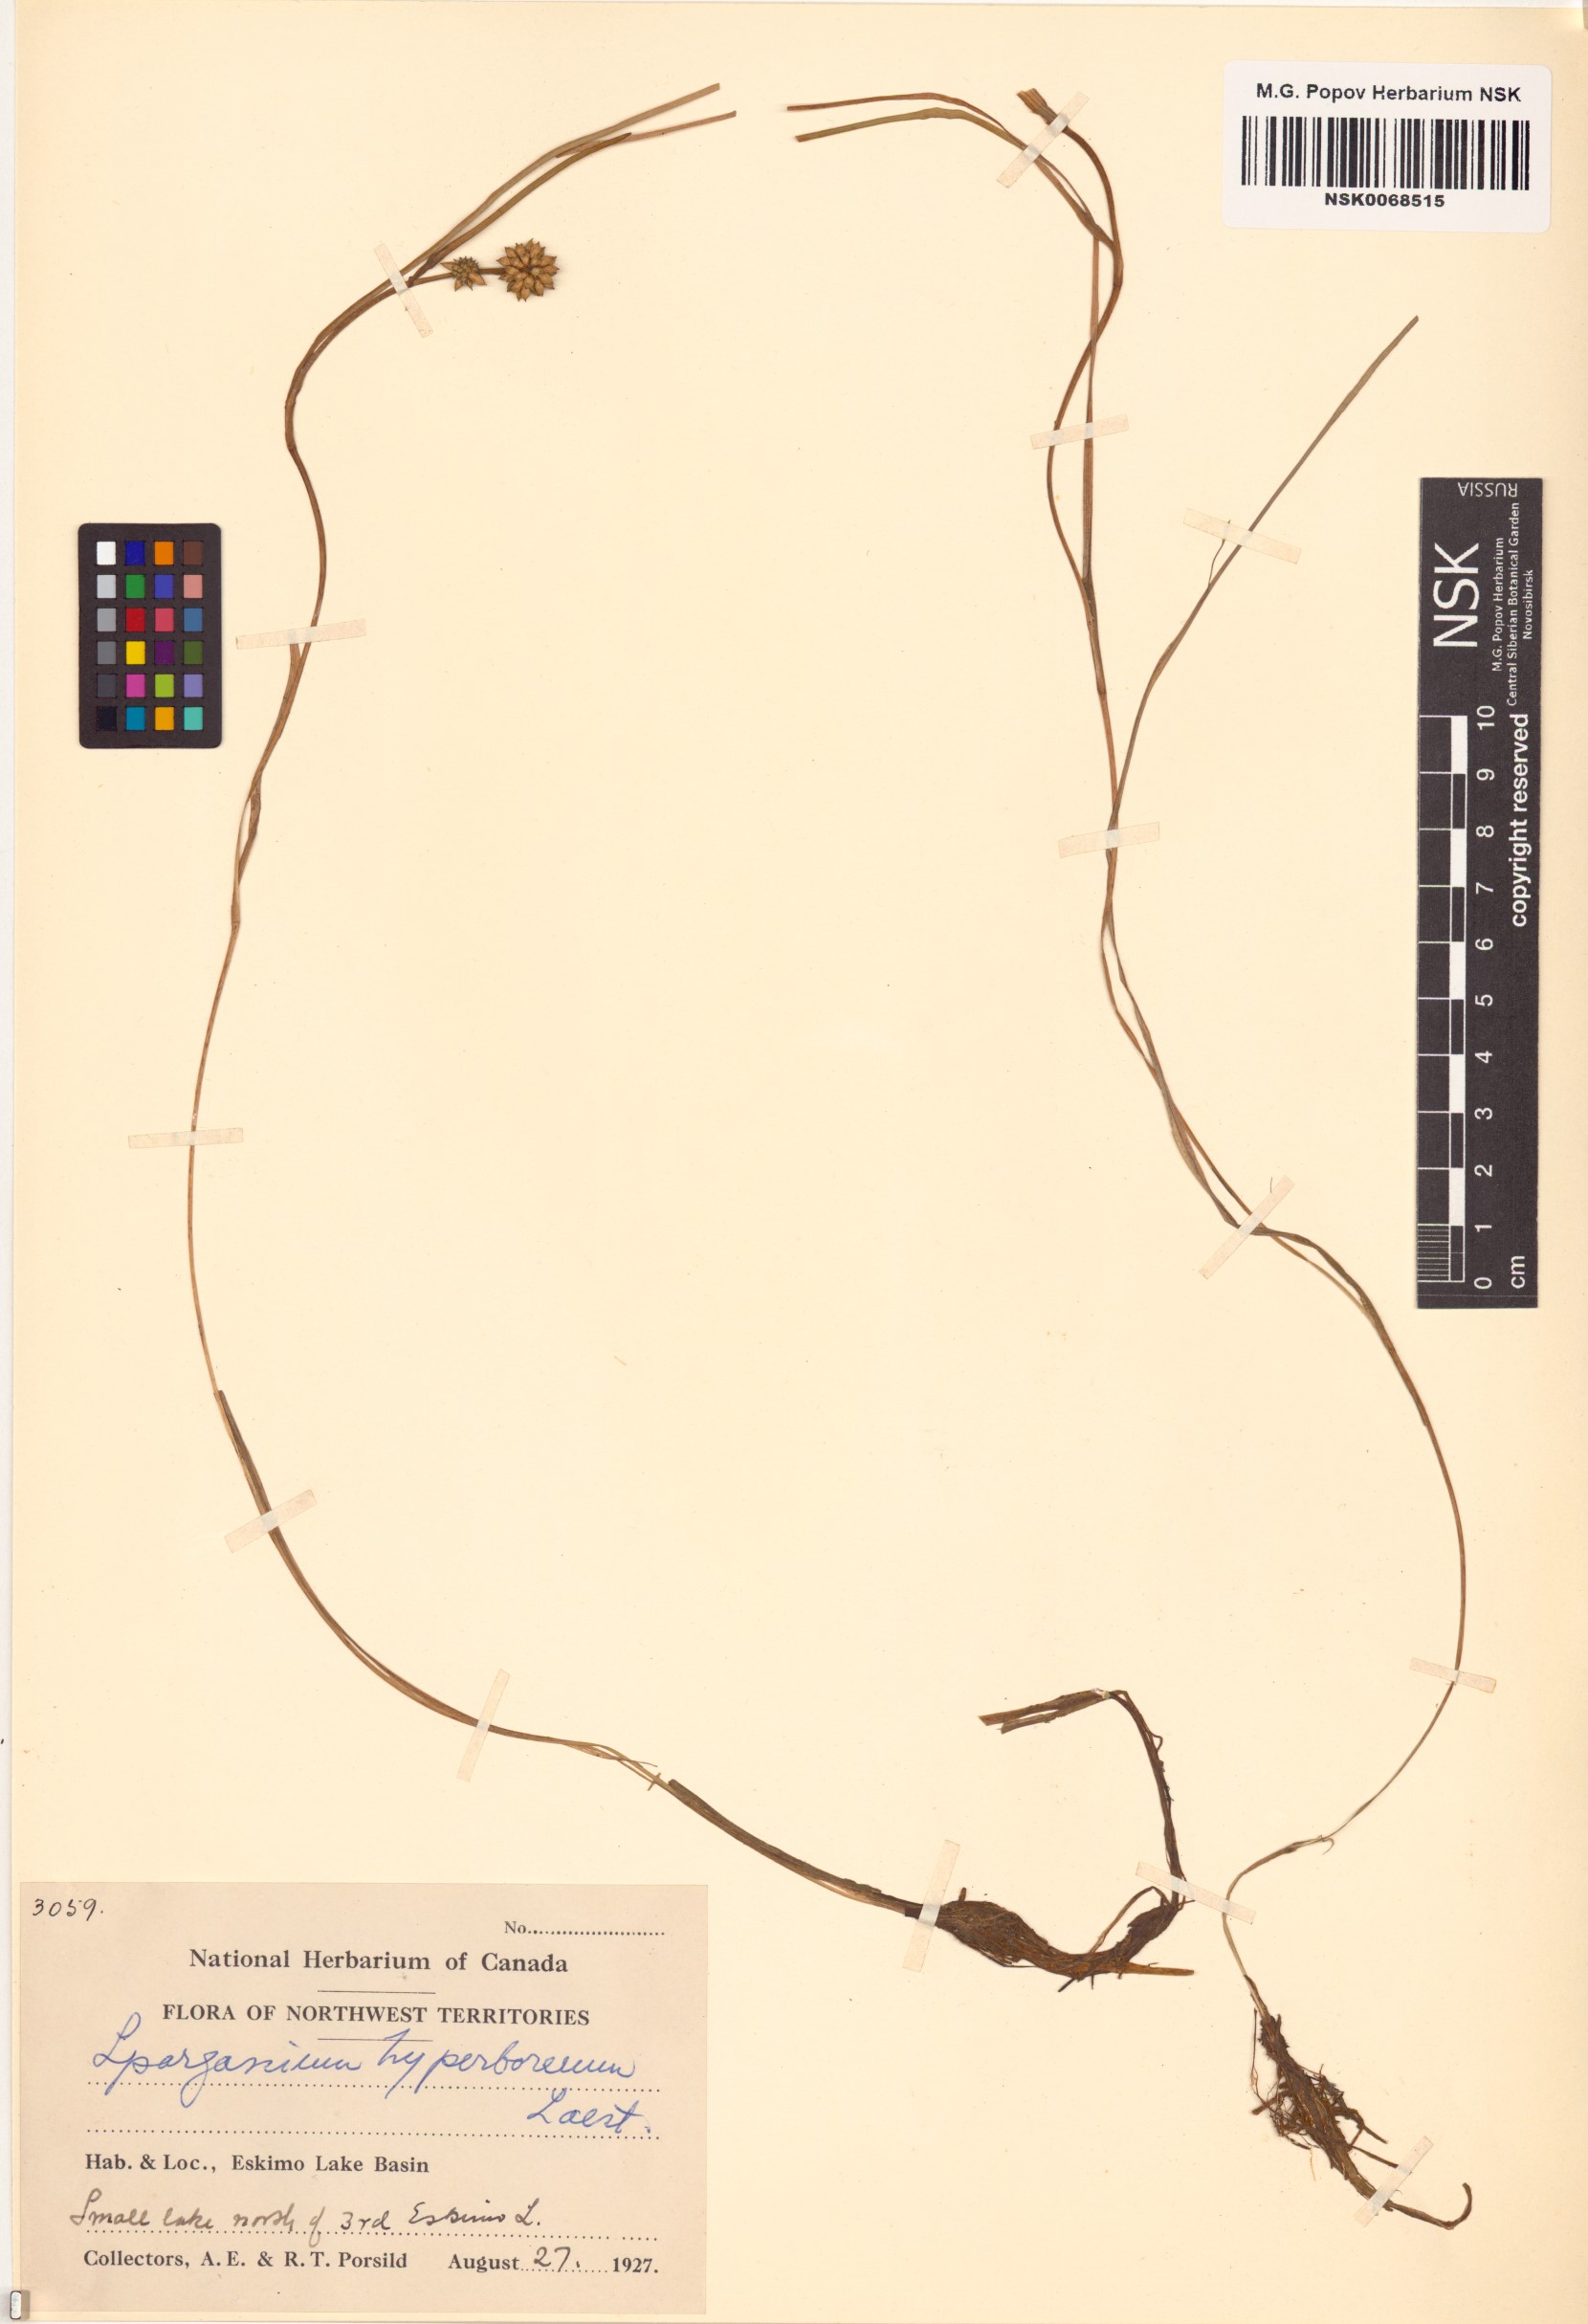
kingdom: Plantae
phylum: Tracheophyta
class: Liliopsida
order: Poales
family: Typhaceae
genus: Sparganium
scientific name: Sparganium hyperboreum
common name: Arctic burreed
